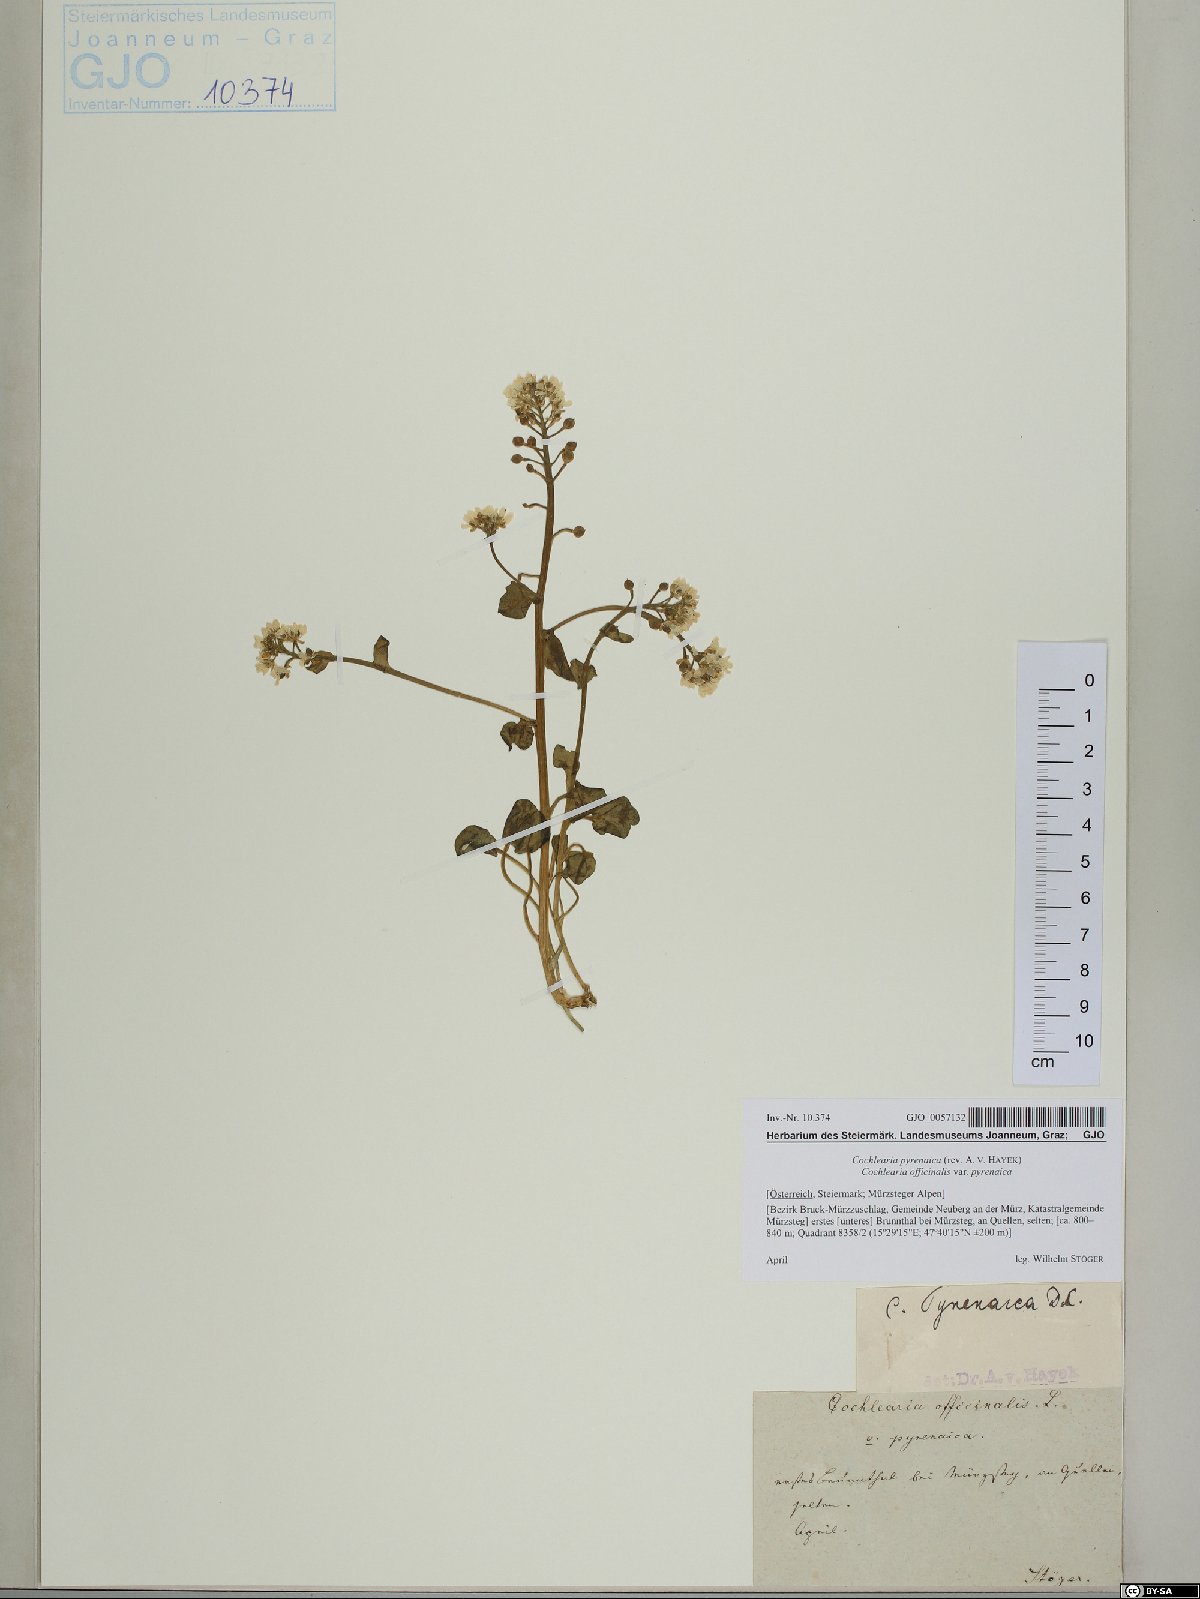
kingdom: Plantae
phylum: Tracheophyta
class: Magnoliopsida
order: Brassicales
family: Brassicaceae
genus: Cochlearia
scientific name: Cochlearia pyrenaica
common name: Upland scurvy-grass
